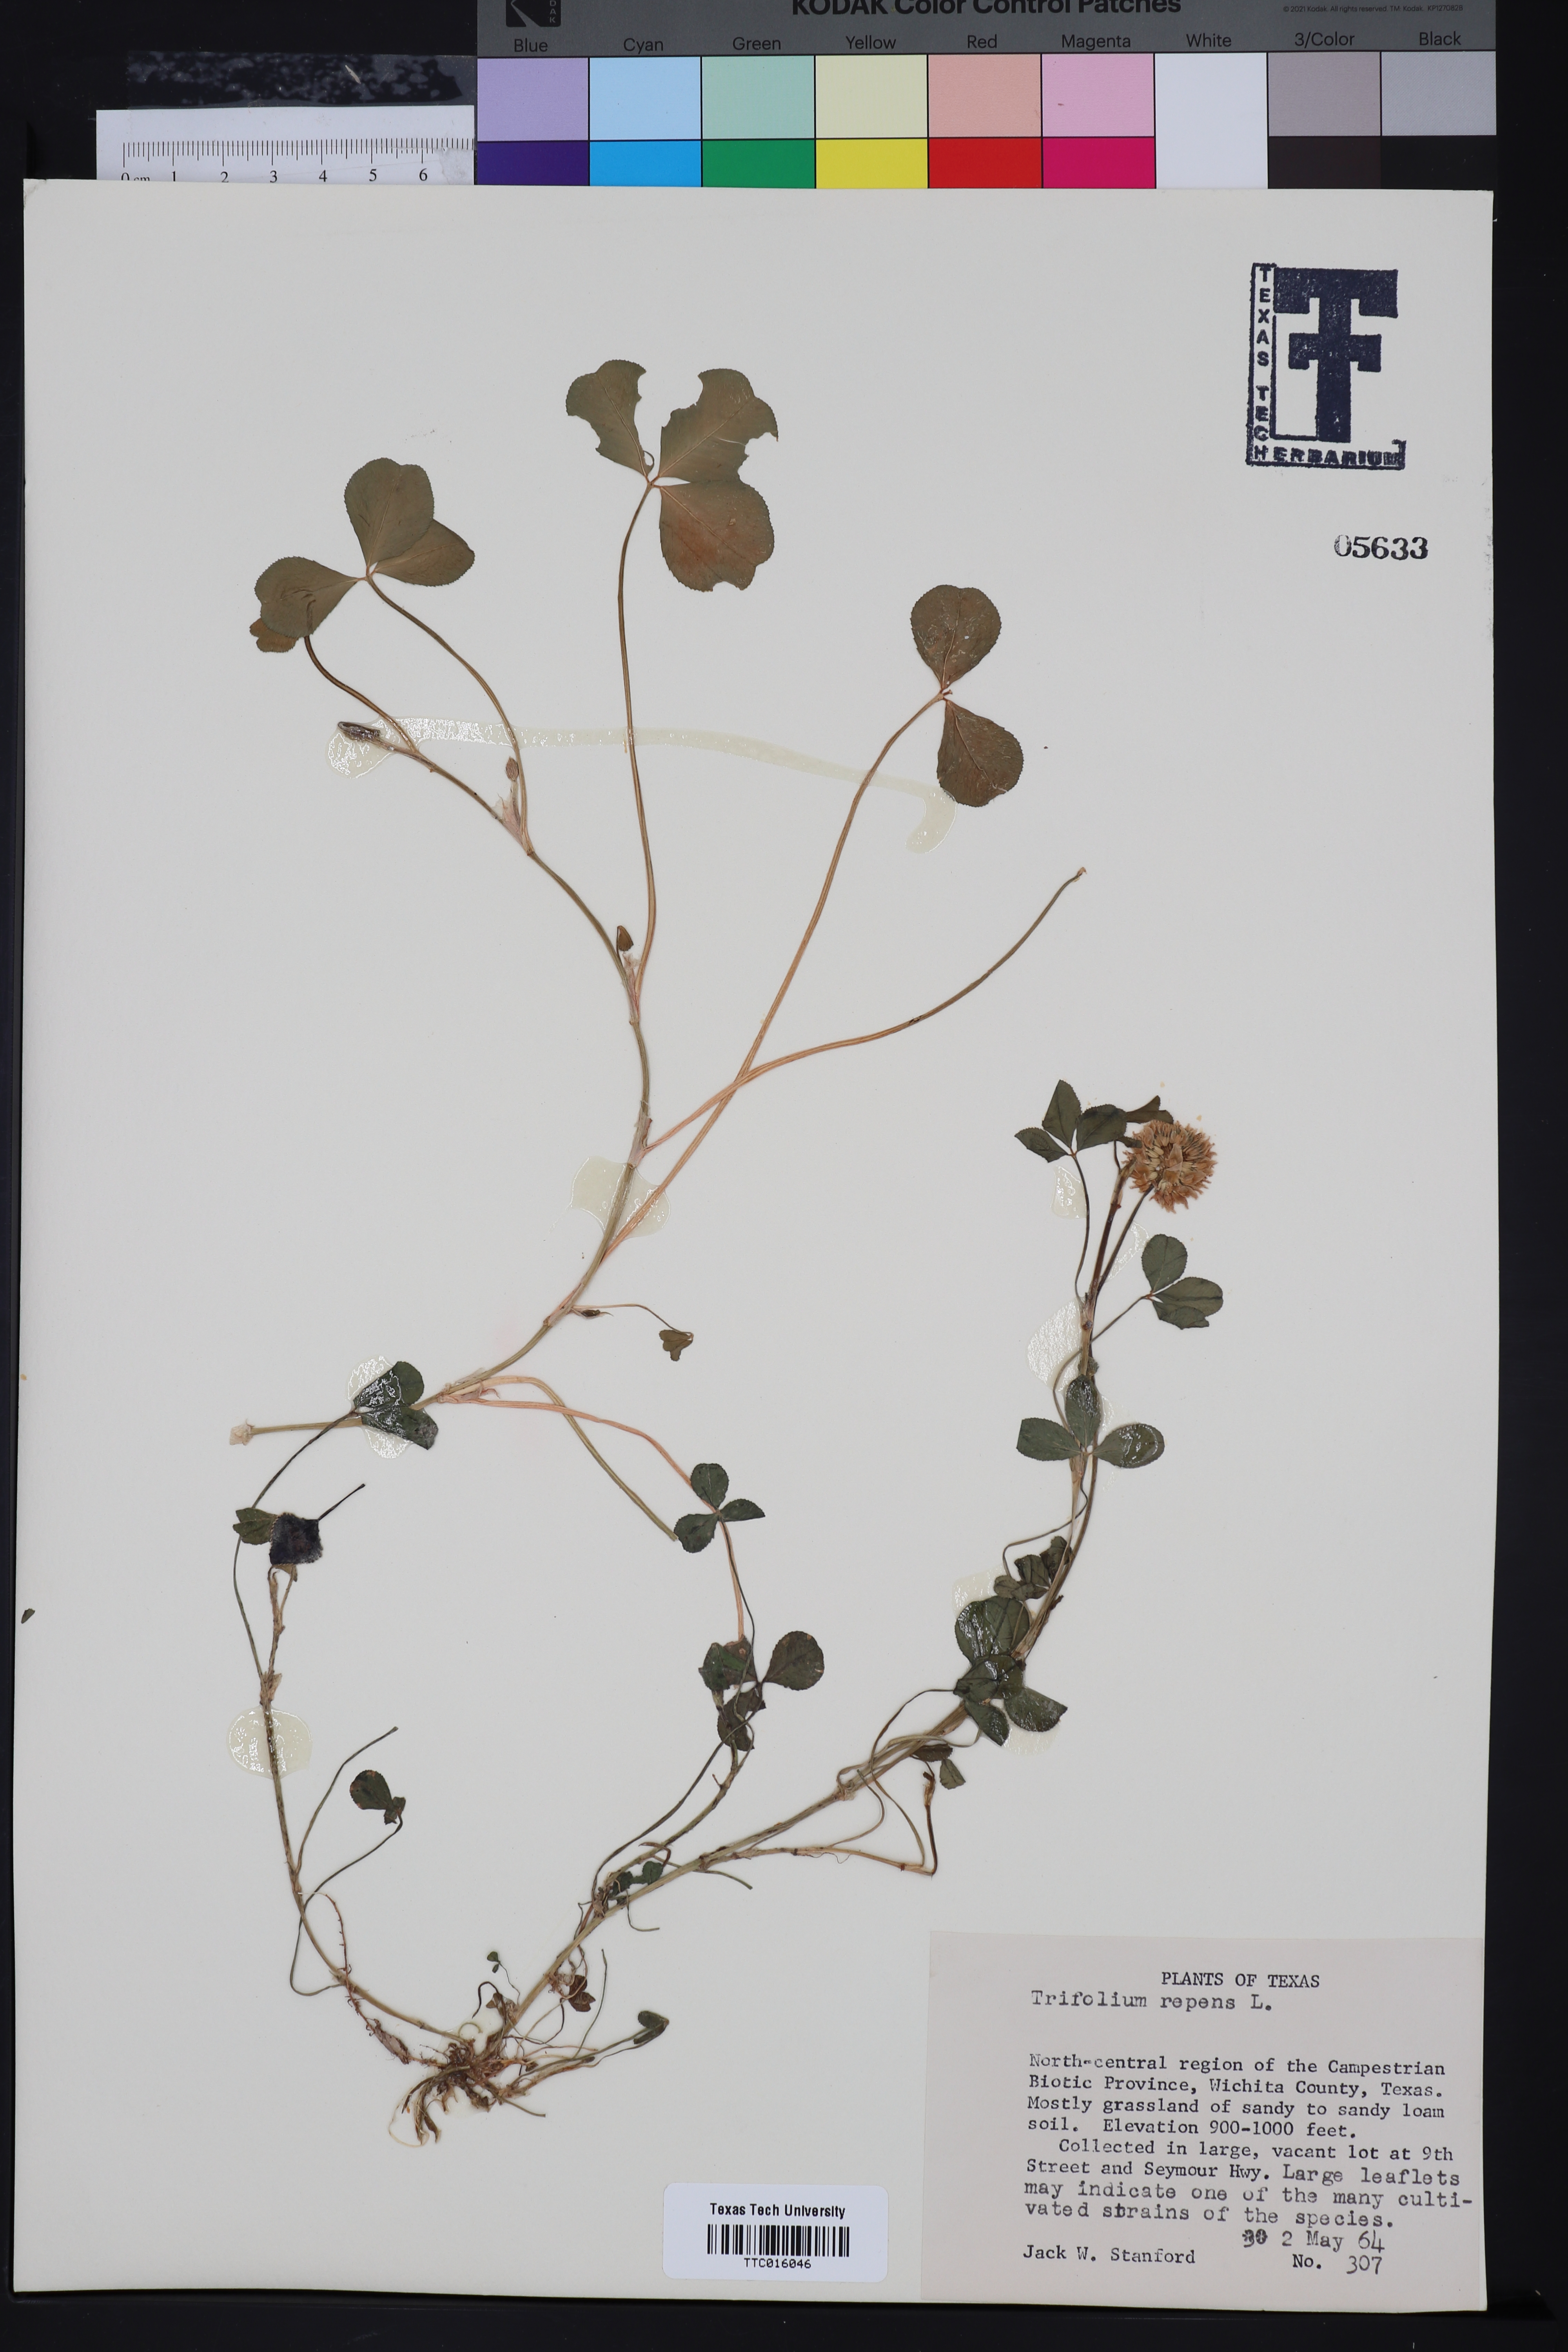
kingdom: Plantae
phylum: Tracheophyta
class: Magnoliopsida
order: Fabales
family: Fabaceae
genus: Trifolium
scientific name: Trifolium repens
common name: White clover
